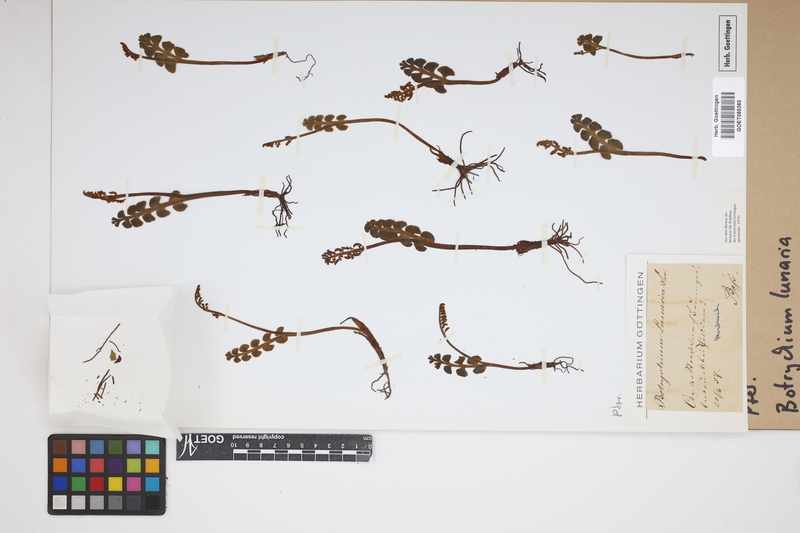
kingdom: Plantae
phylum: Tracheophyta
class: Polypodiopsida
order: Ophioglossales
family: Ophioglossaceae
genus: Botrychium
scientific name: Botrychium lunaria
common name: Moonwort
